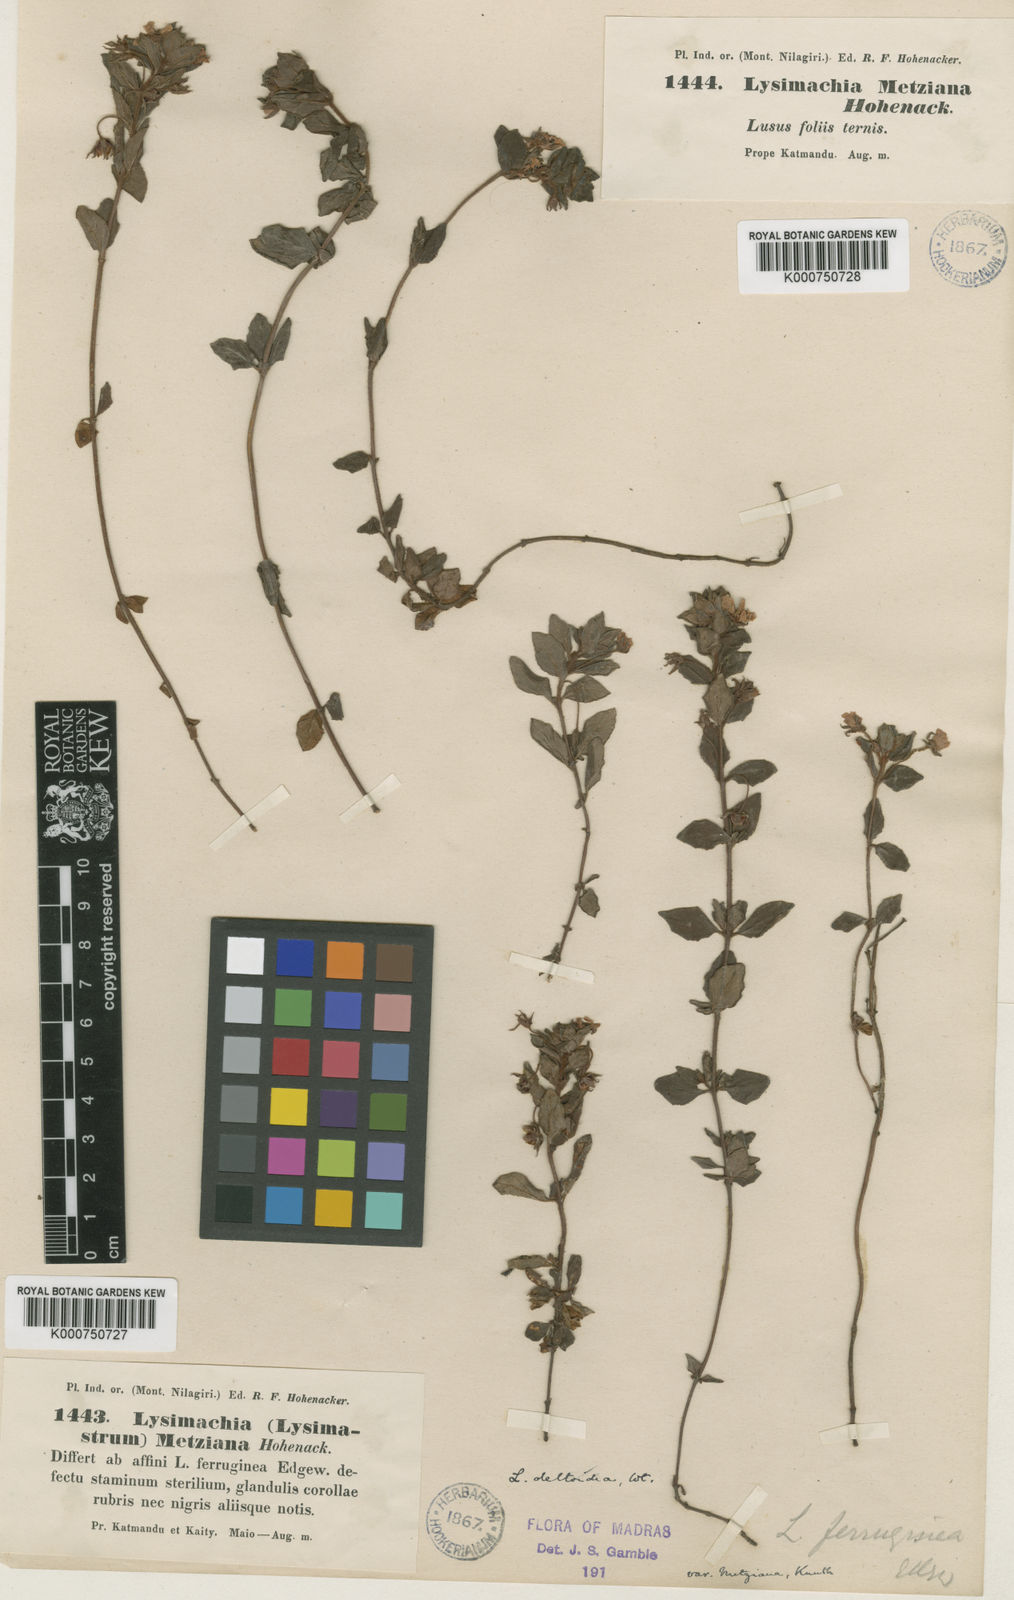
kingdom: Plantae
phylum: Tracheophyta
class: Magnoliopsida
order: Ericales
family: Primulaceae
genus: Lysimachia
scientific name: Lysimachia deltoidea
